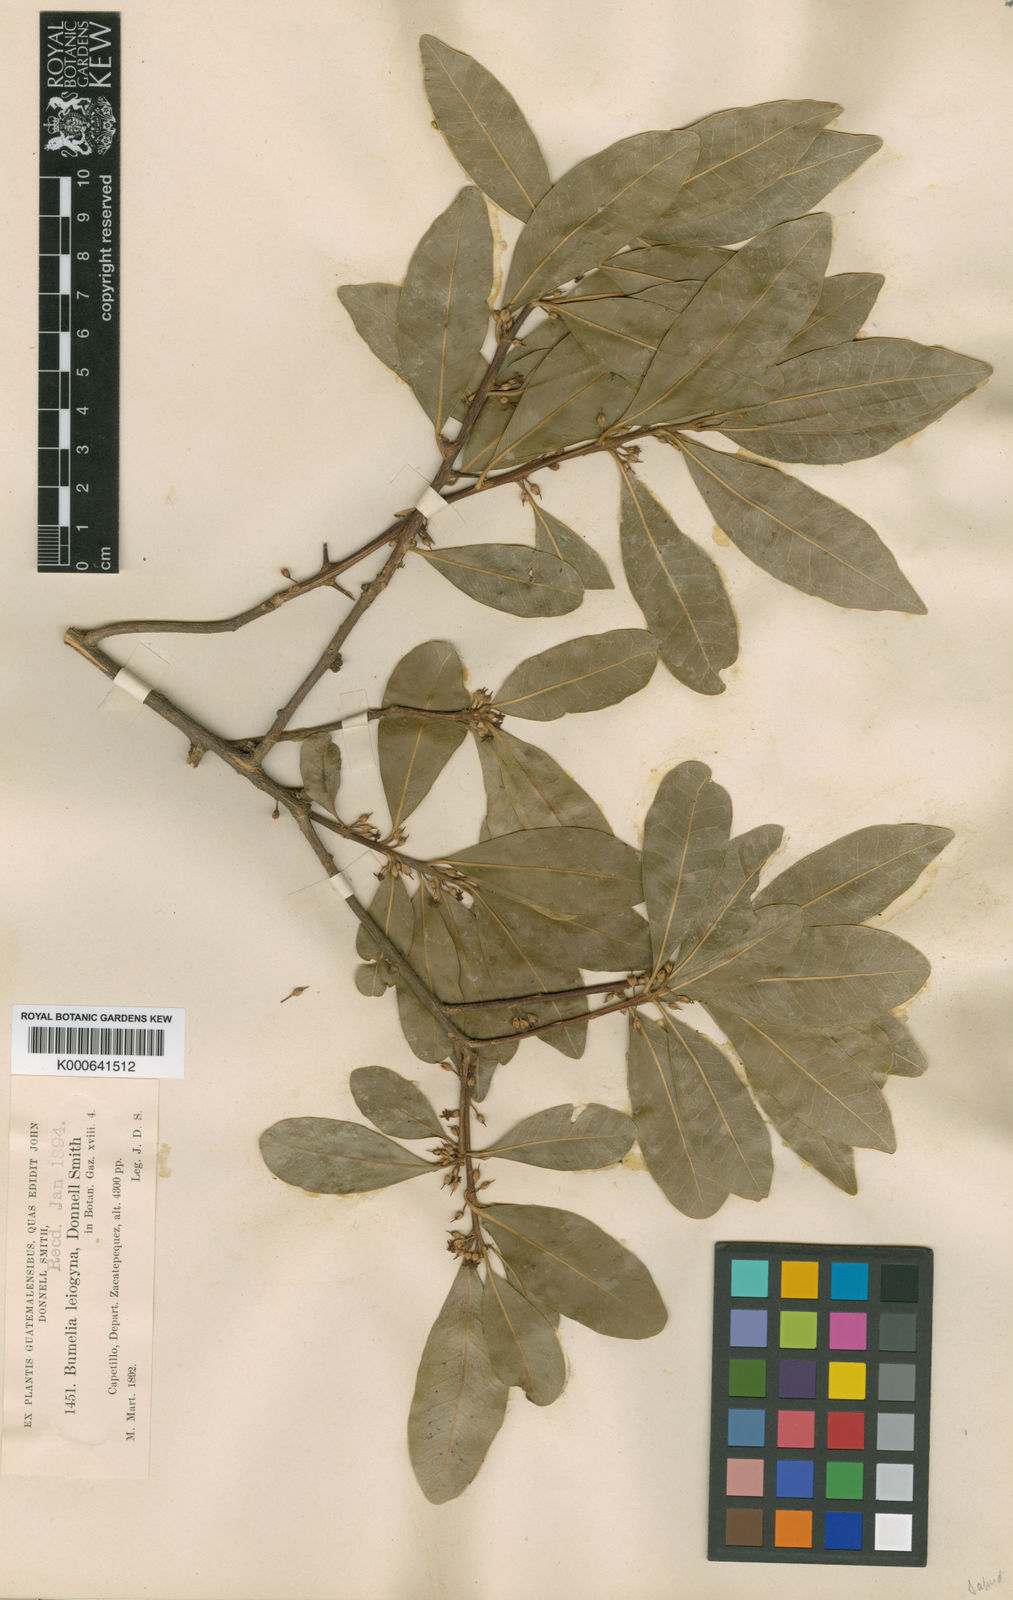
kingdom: Plantae
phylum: Tracheophyta
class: Magnoliopsida
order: Ericales
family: Sapotaceae
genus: Sideroxylon
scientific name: Sideroxylon persimile
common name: Bumelia
